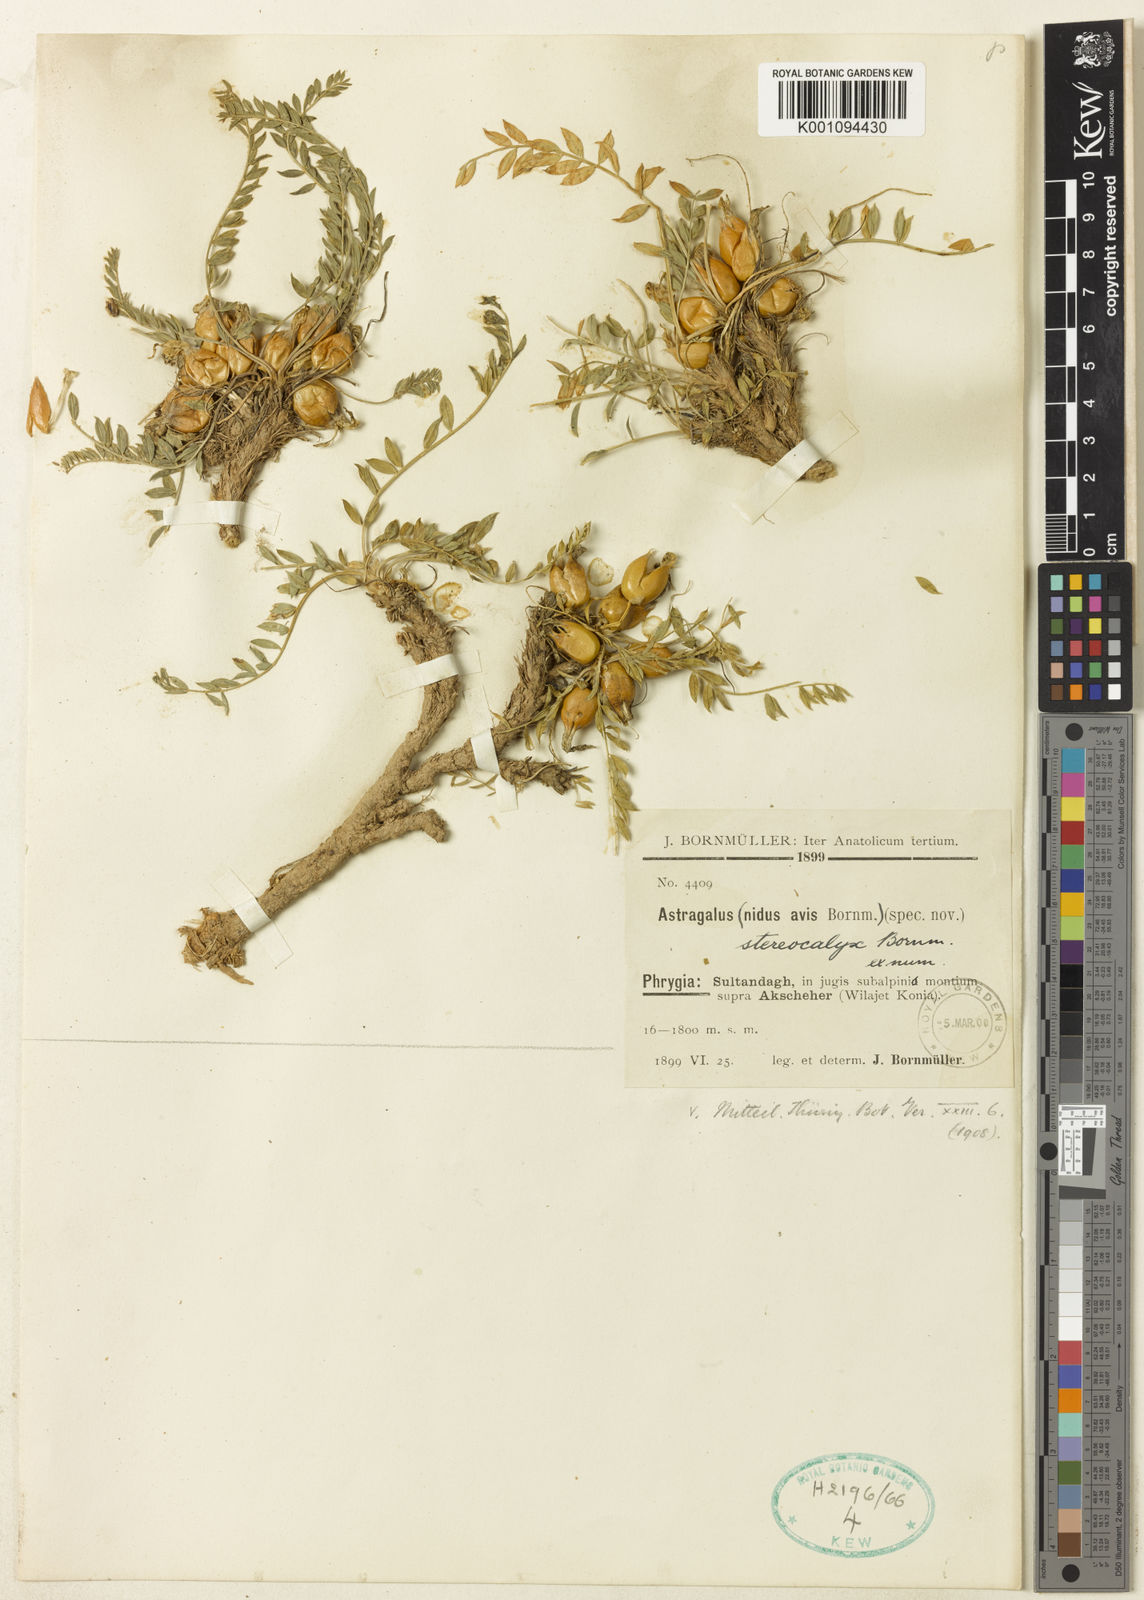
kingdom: Plantae
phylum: Tracheophyta
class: Magnoliopsida
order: Fabales
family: Fabaceae
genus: Astragalus
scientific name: Astragalus
